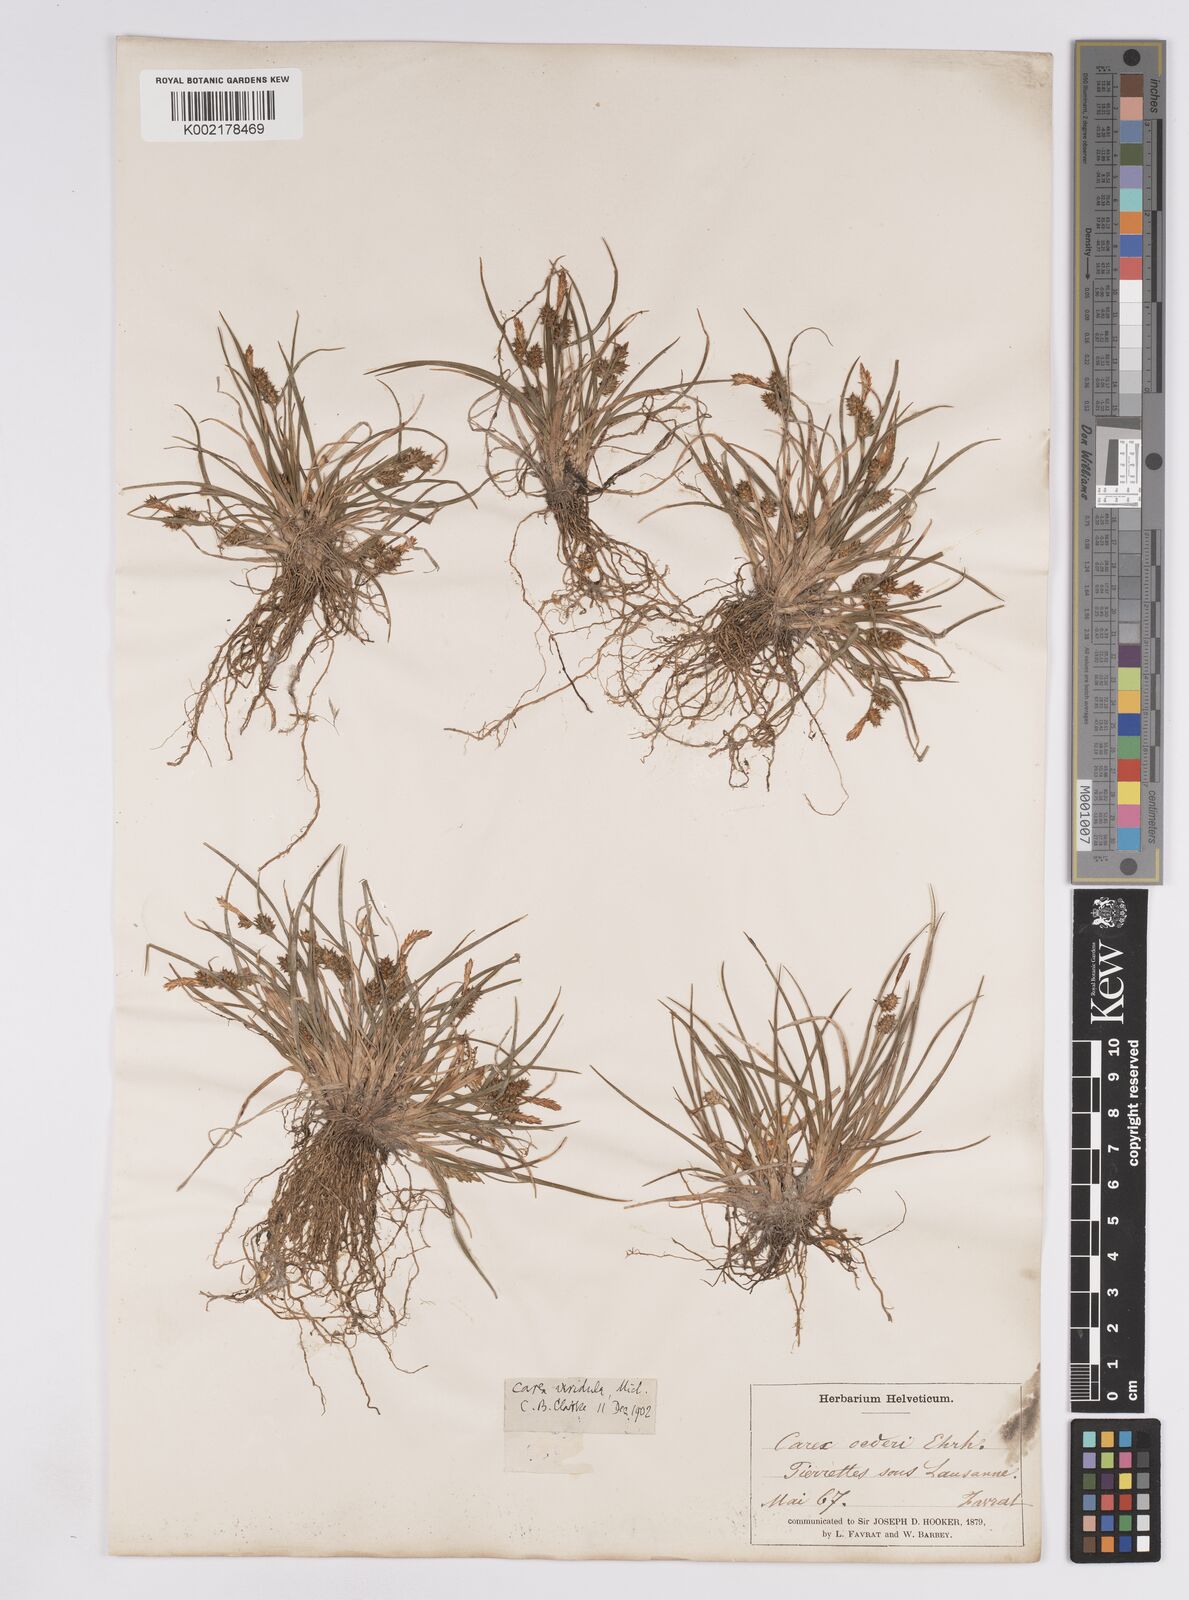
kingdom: Plantae
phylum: Tracheophyta
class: Liliopsida
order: Poales
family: Cyperaceae
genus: Carex
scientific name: Carex demissa
